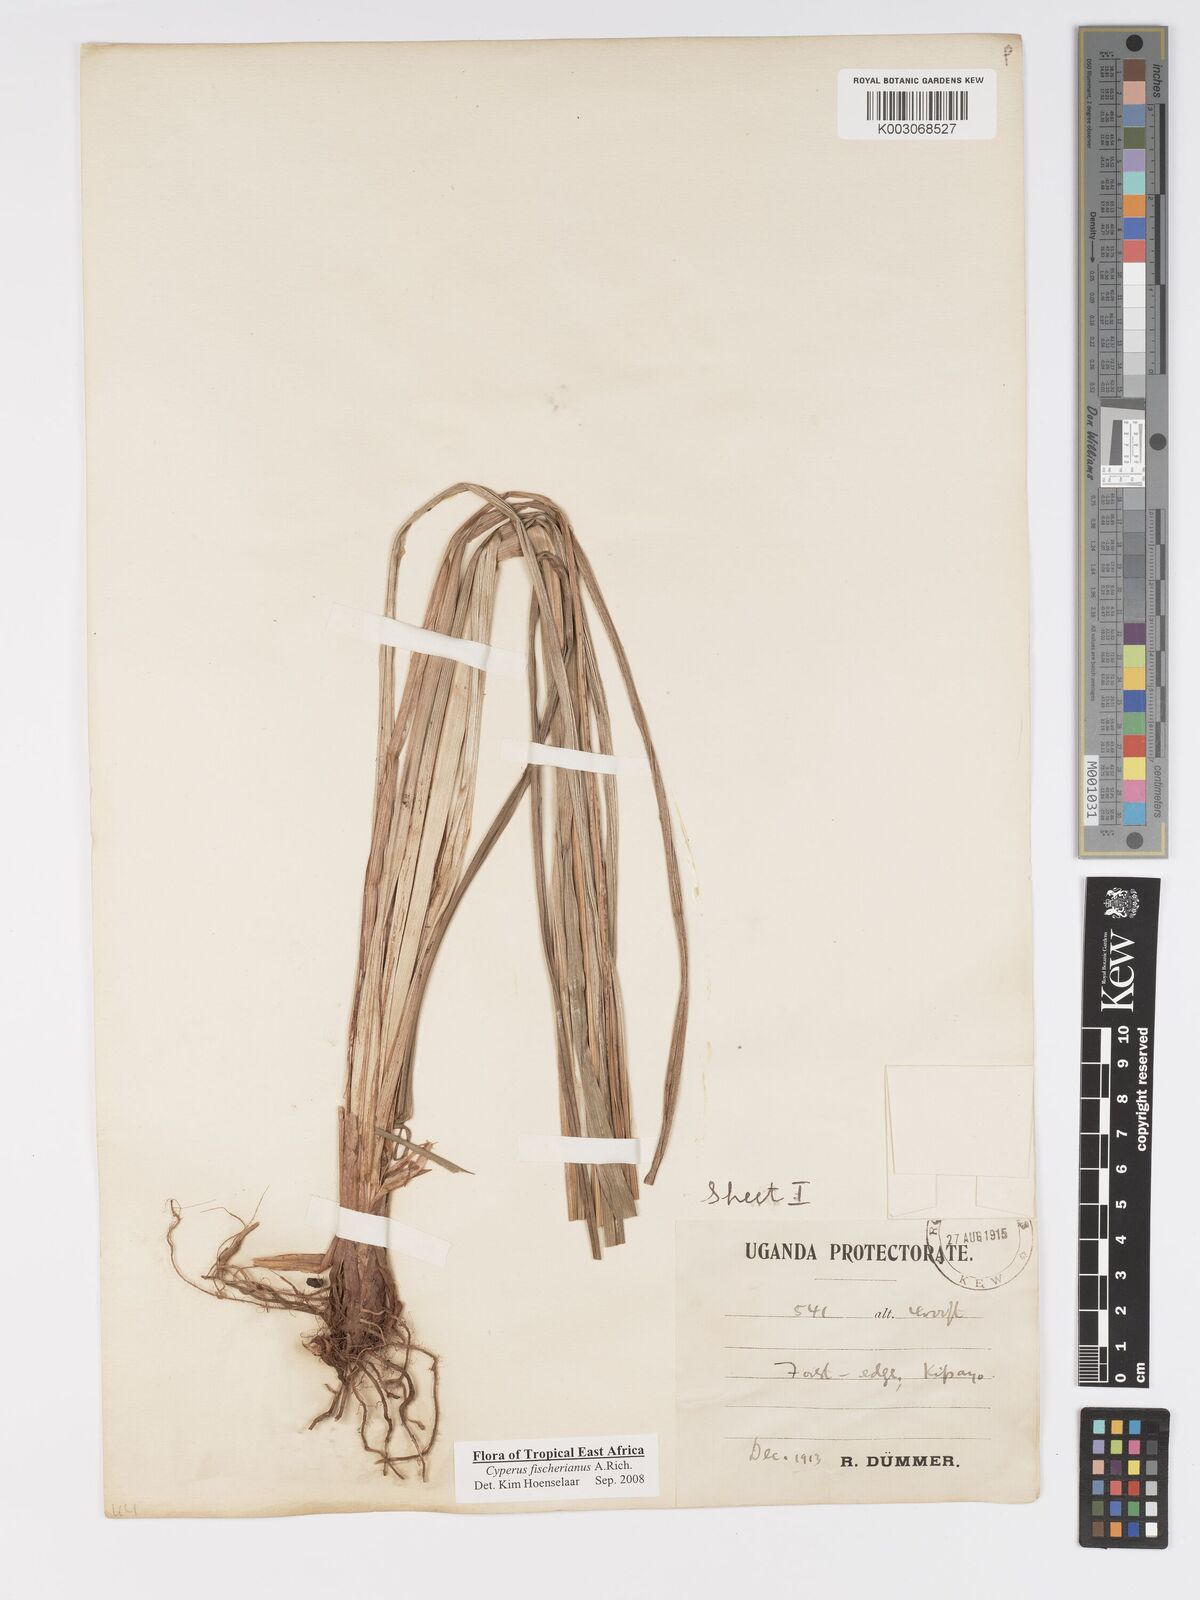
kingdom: Plantae
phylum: Tracheophyta
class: Liliopsida
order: Poales
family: Cyperaceae
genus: Cyperus
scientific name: Cyperus fischerianus
